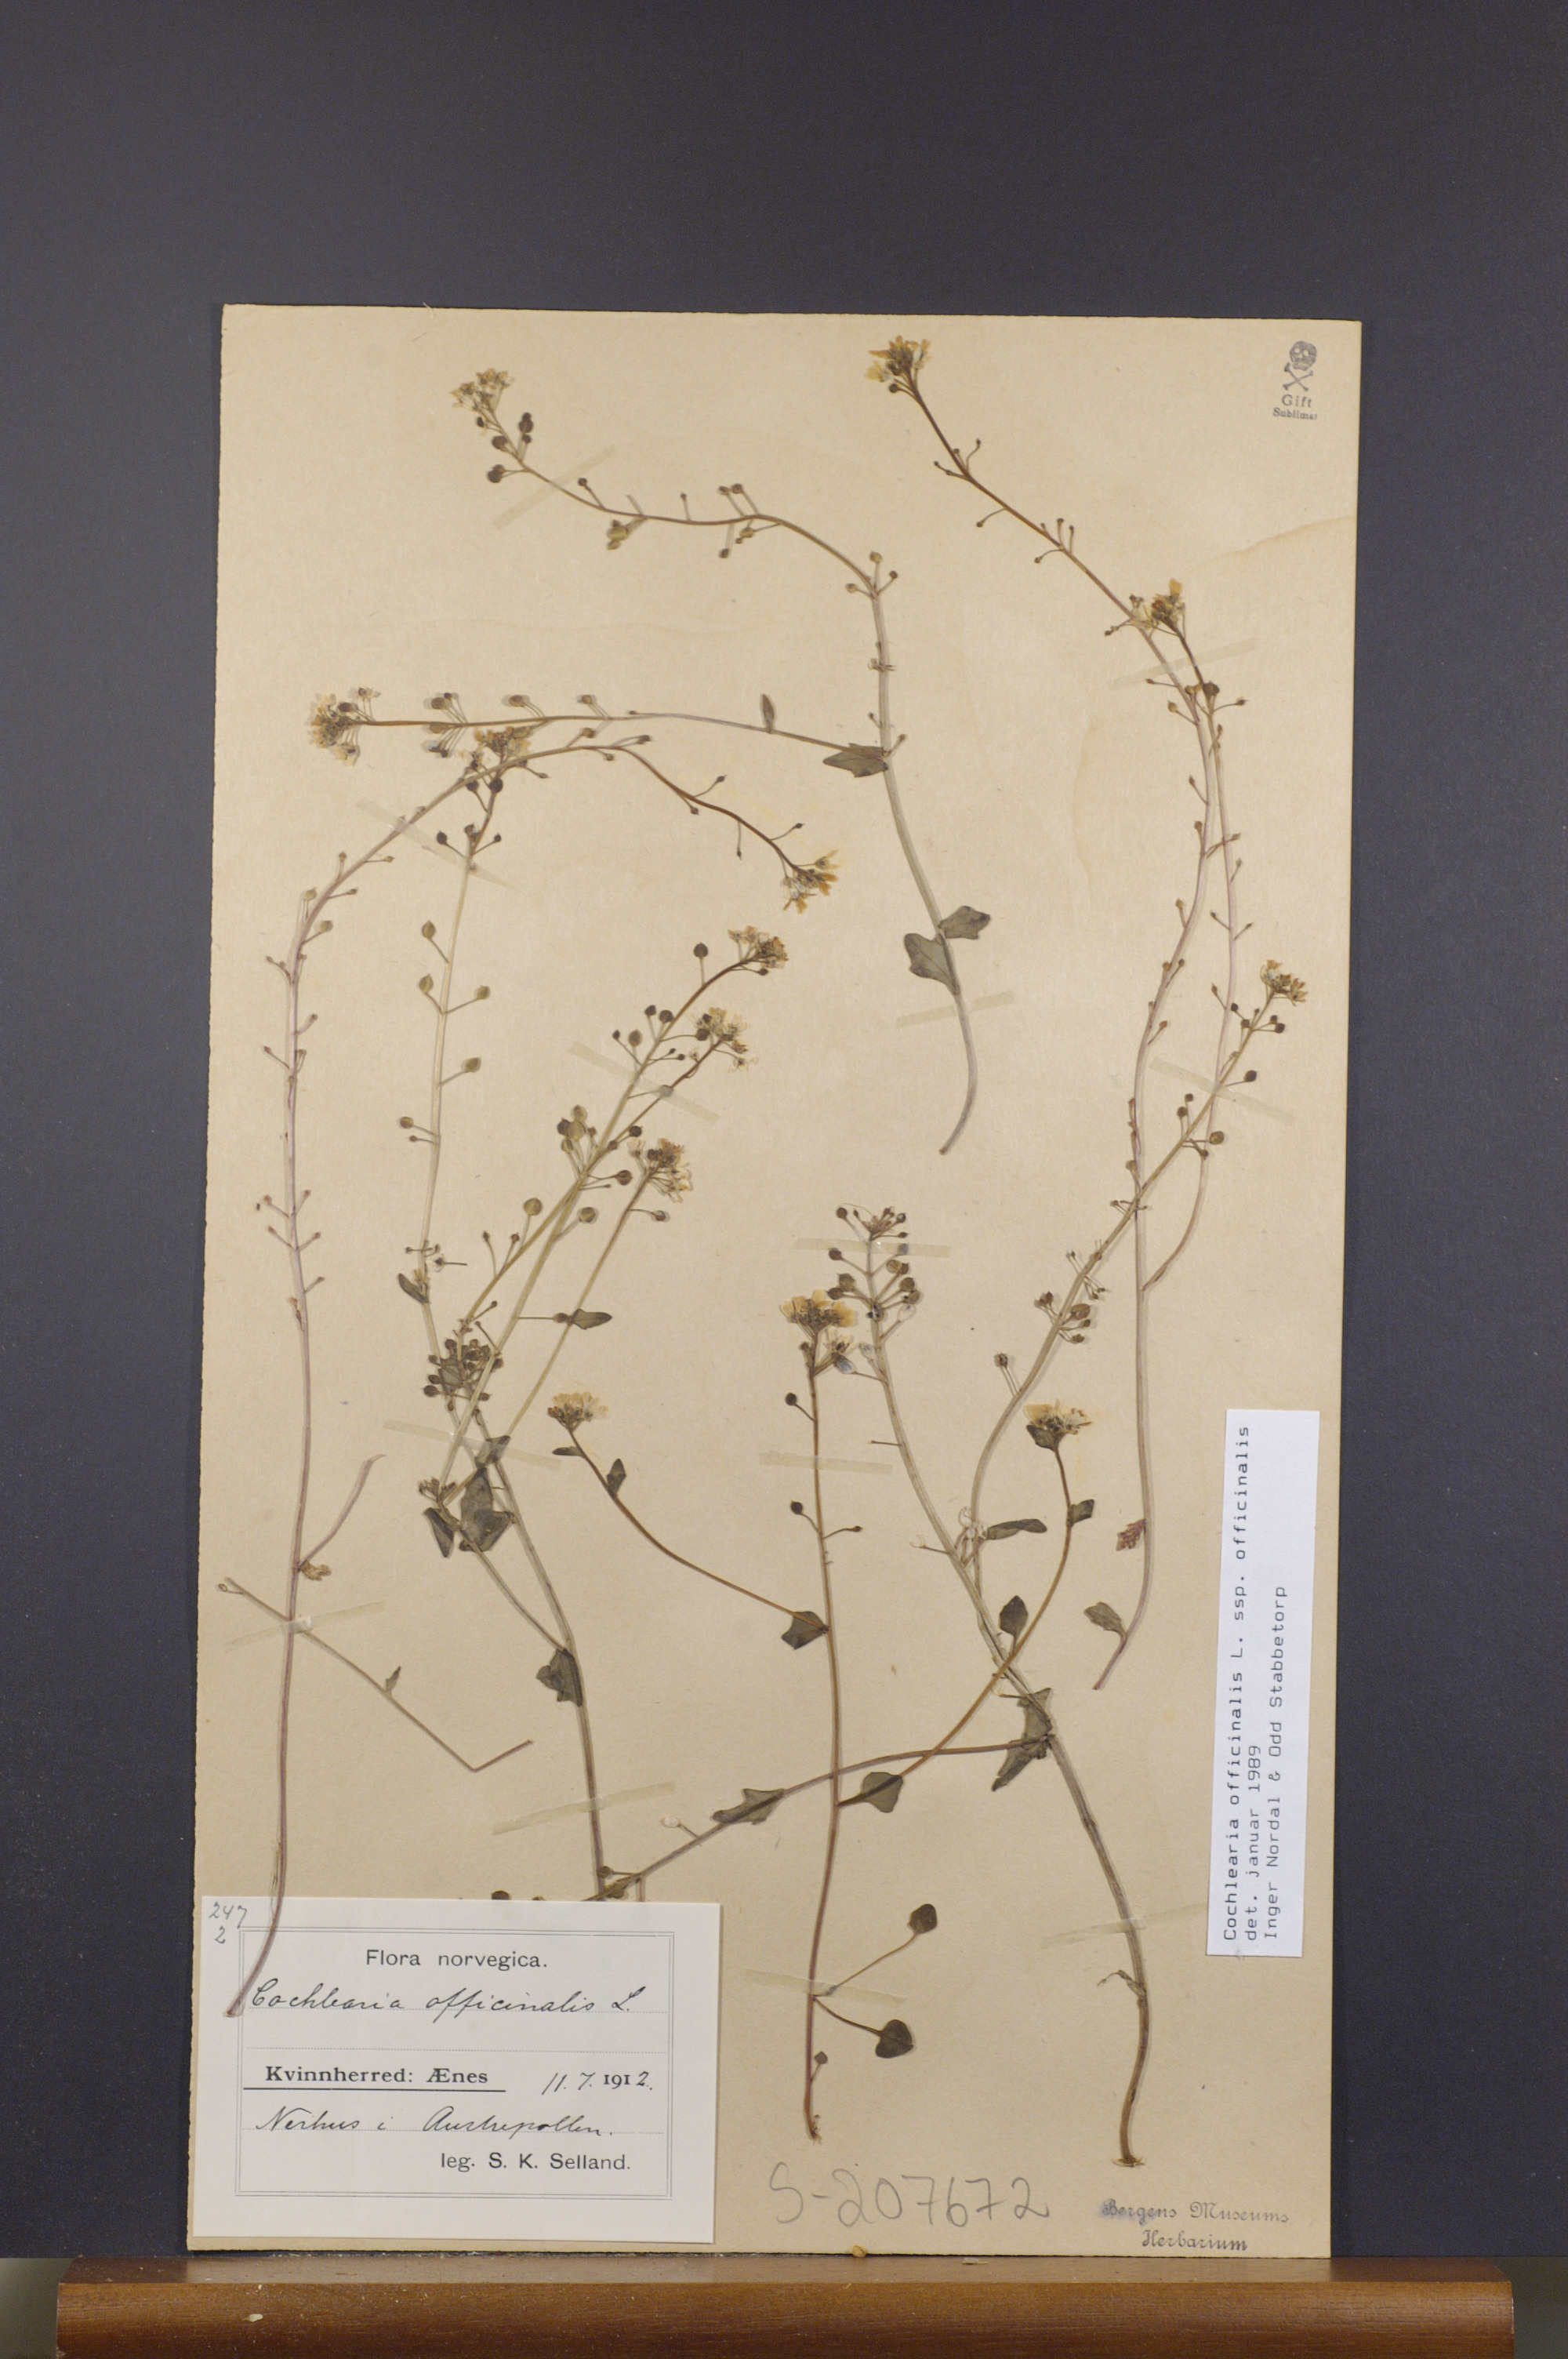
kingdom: Plantae
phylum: Tracheophyta
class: Magnoliopsida
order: Brassicales
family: Brassicaceae
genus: Cochlearia
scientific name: Cochlearia officinalis
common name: Scurvy-grass
